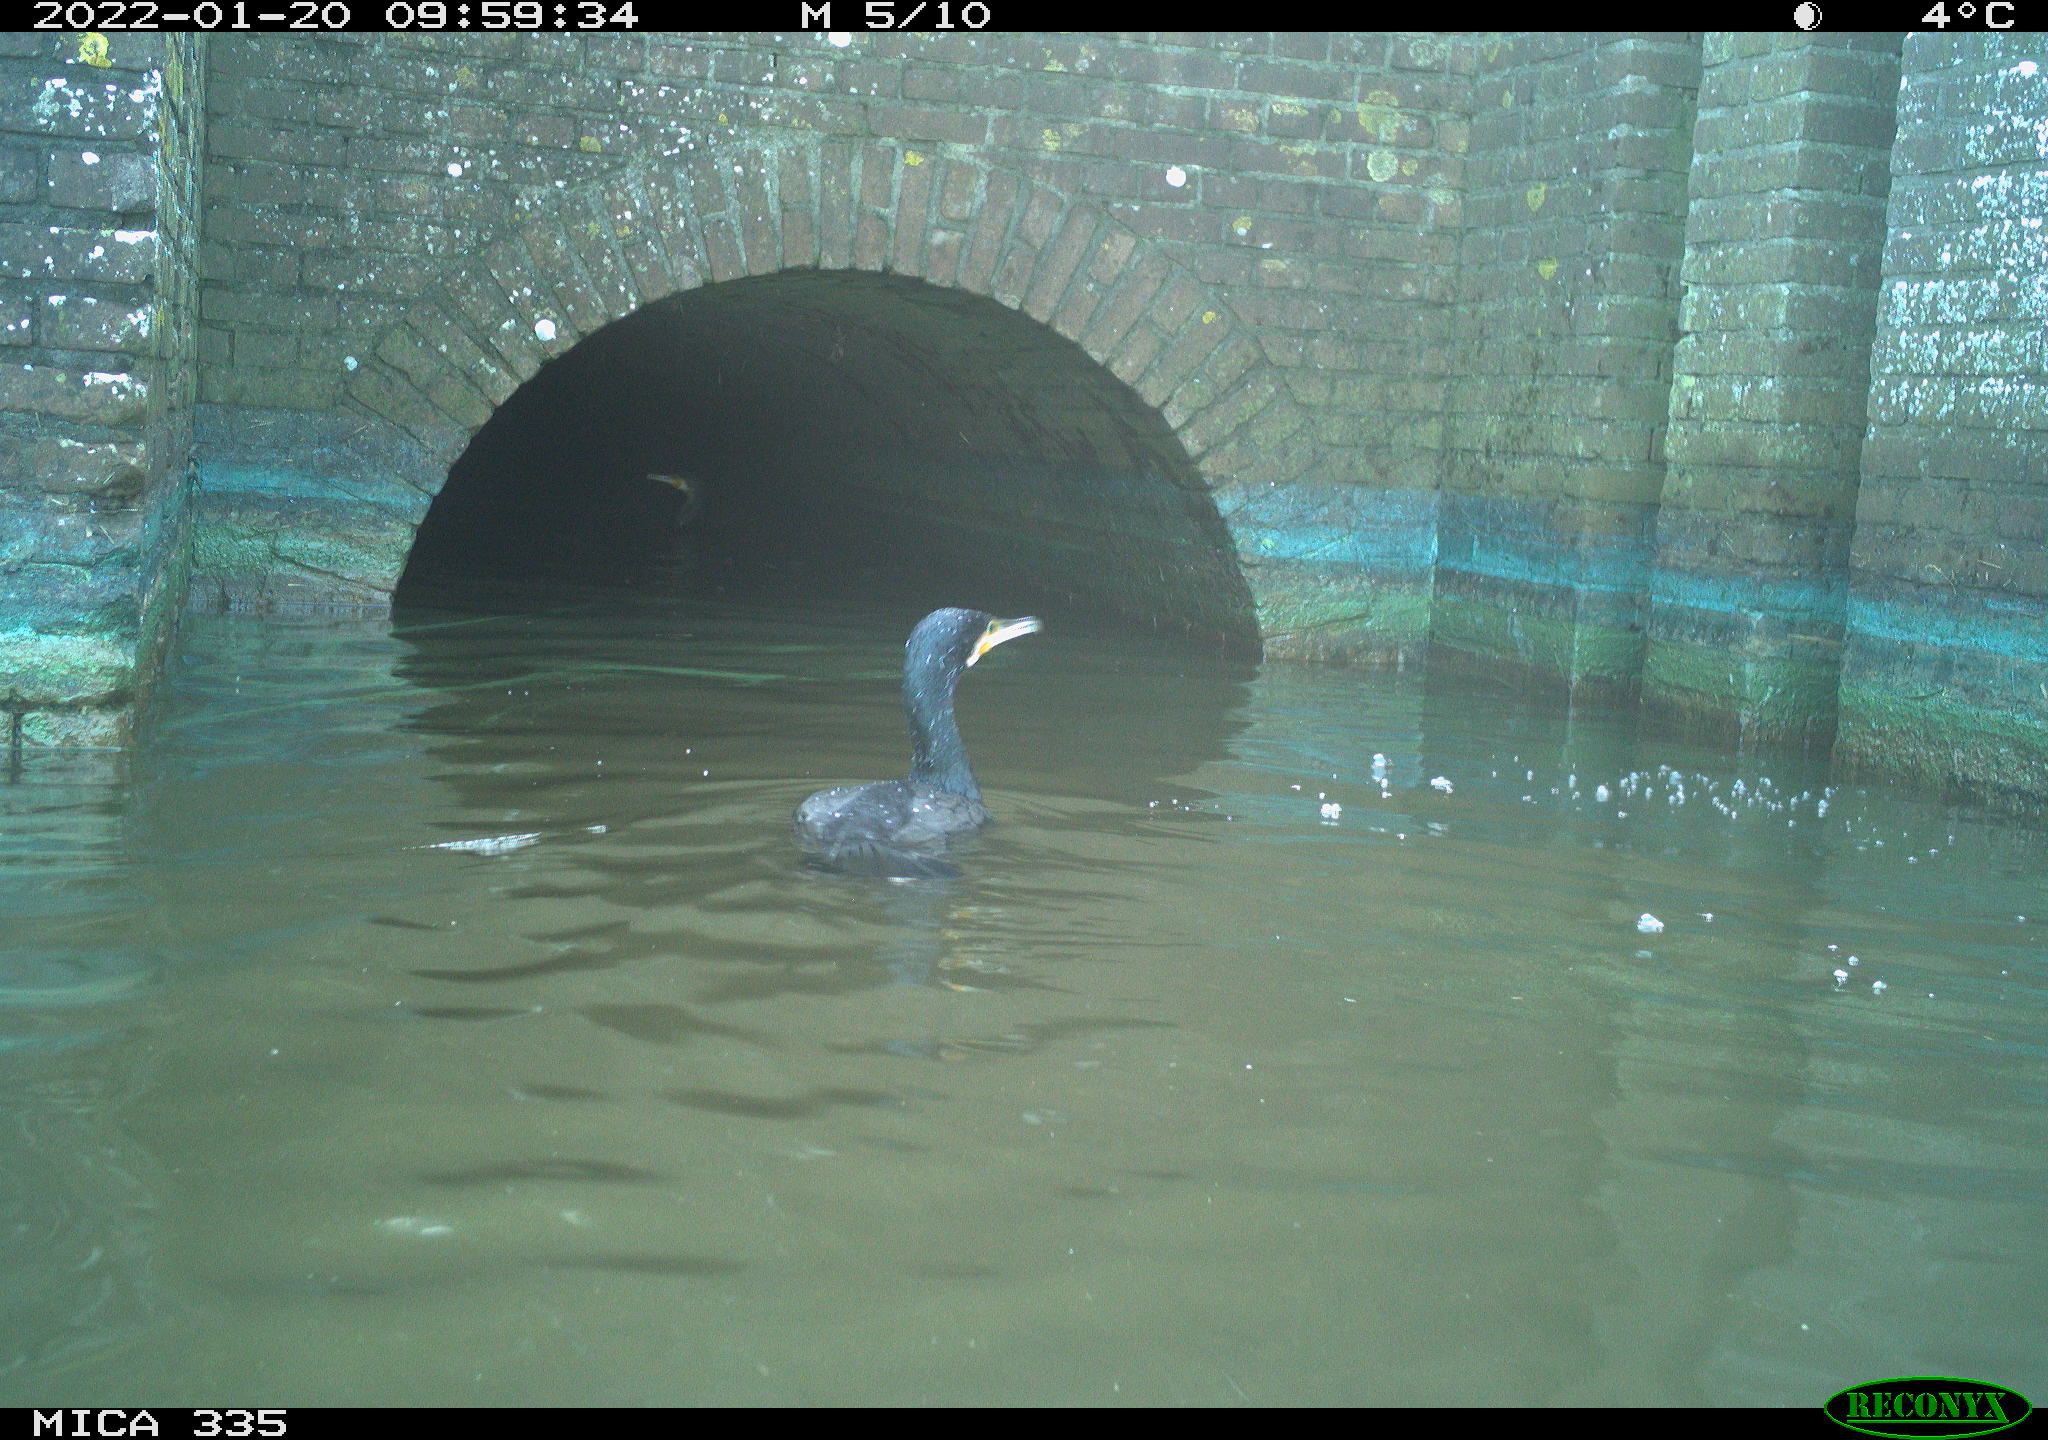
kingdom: Animalia
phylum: Chordata
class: Aves
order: Suliformes
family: Phalacrocoracidae
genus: Phalacrocorax
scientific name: Phalacrocorax carbo
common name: Great cormorant
